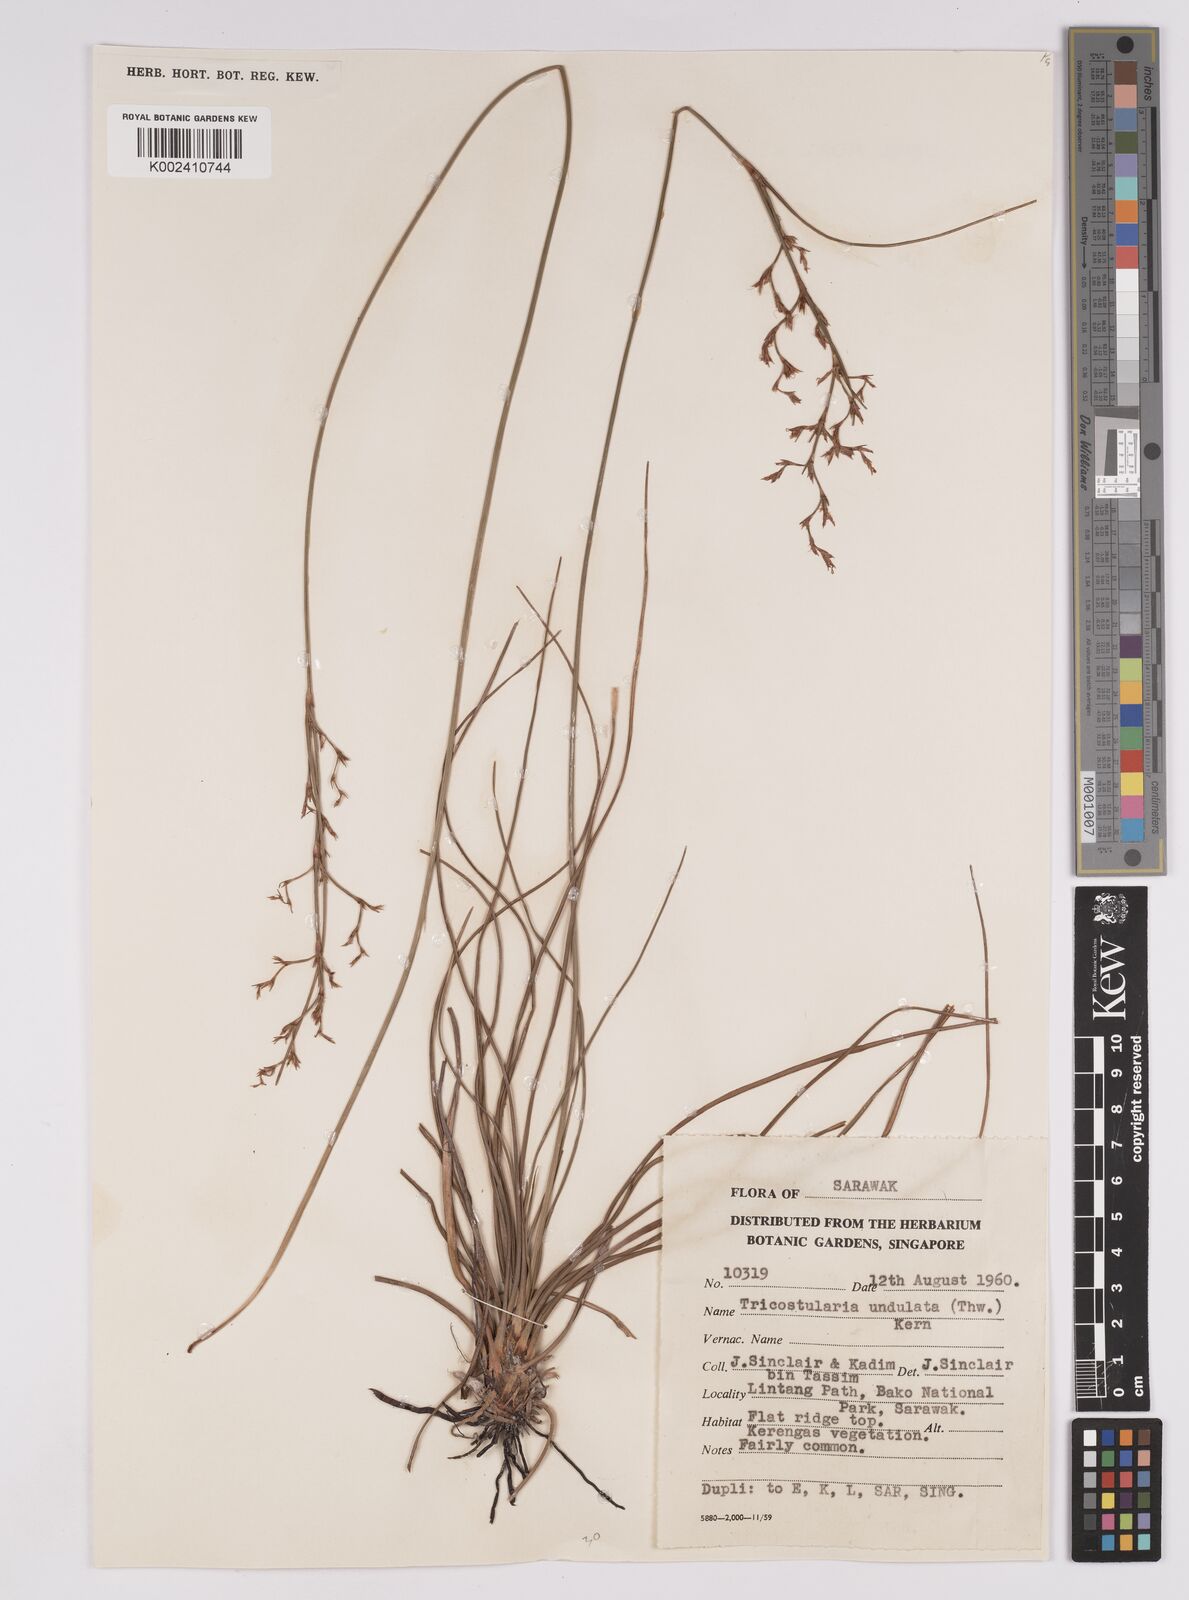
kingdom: Plantae
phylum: Tracheophyta
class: Liliopsida
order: Poales
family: Cyperaceae
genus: Anthelepis
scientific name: Anthelepis undulata
